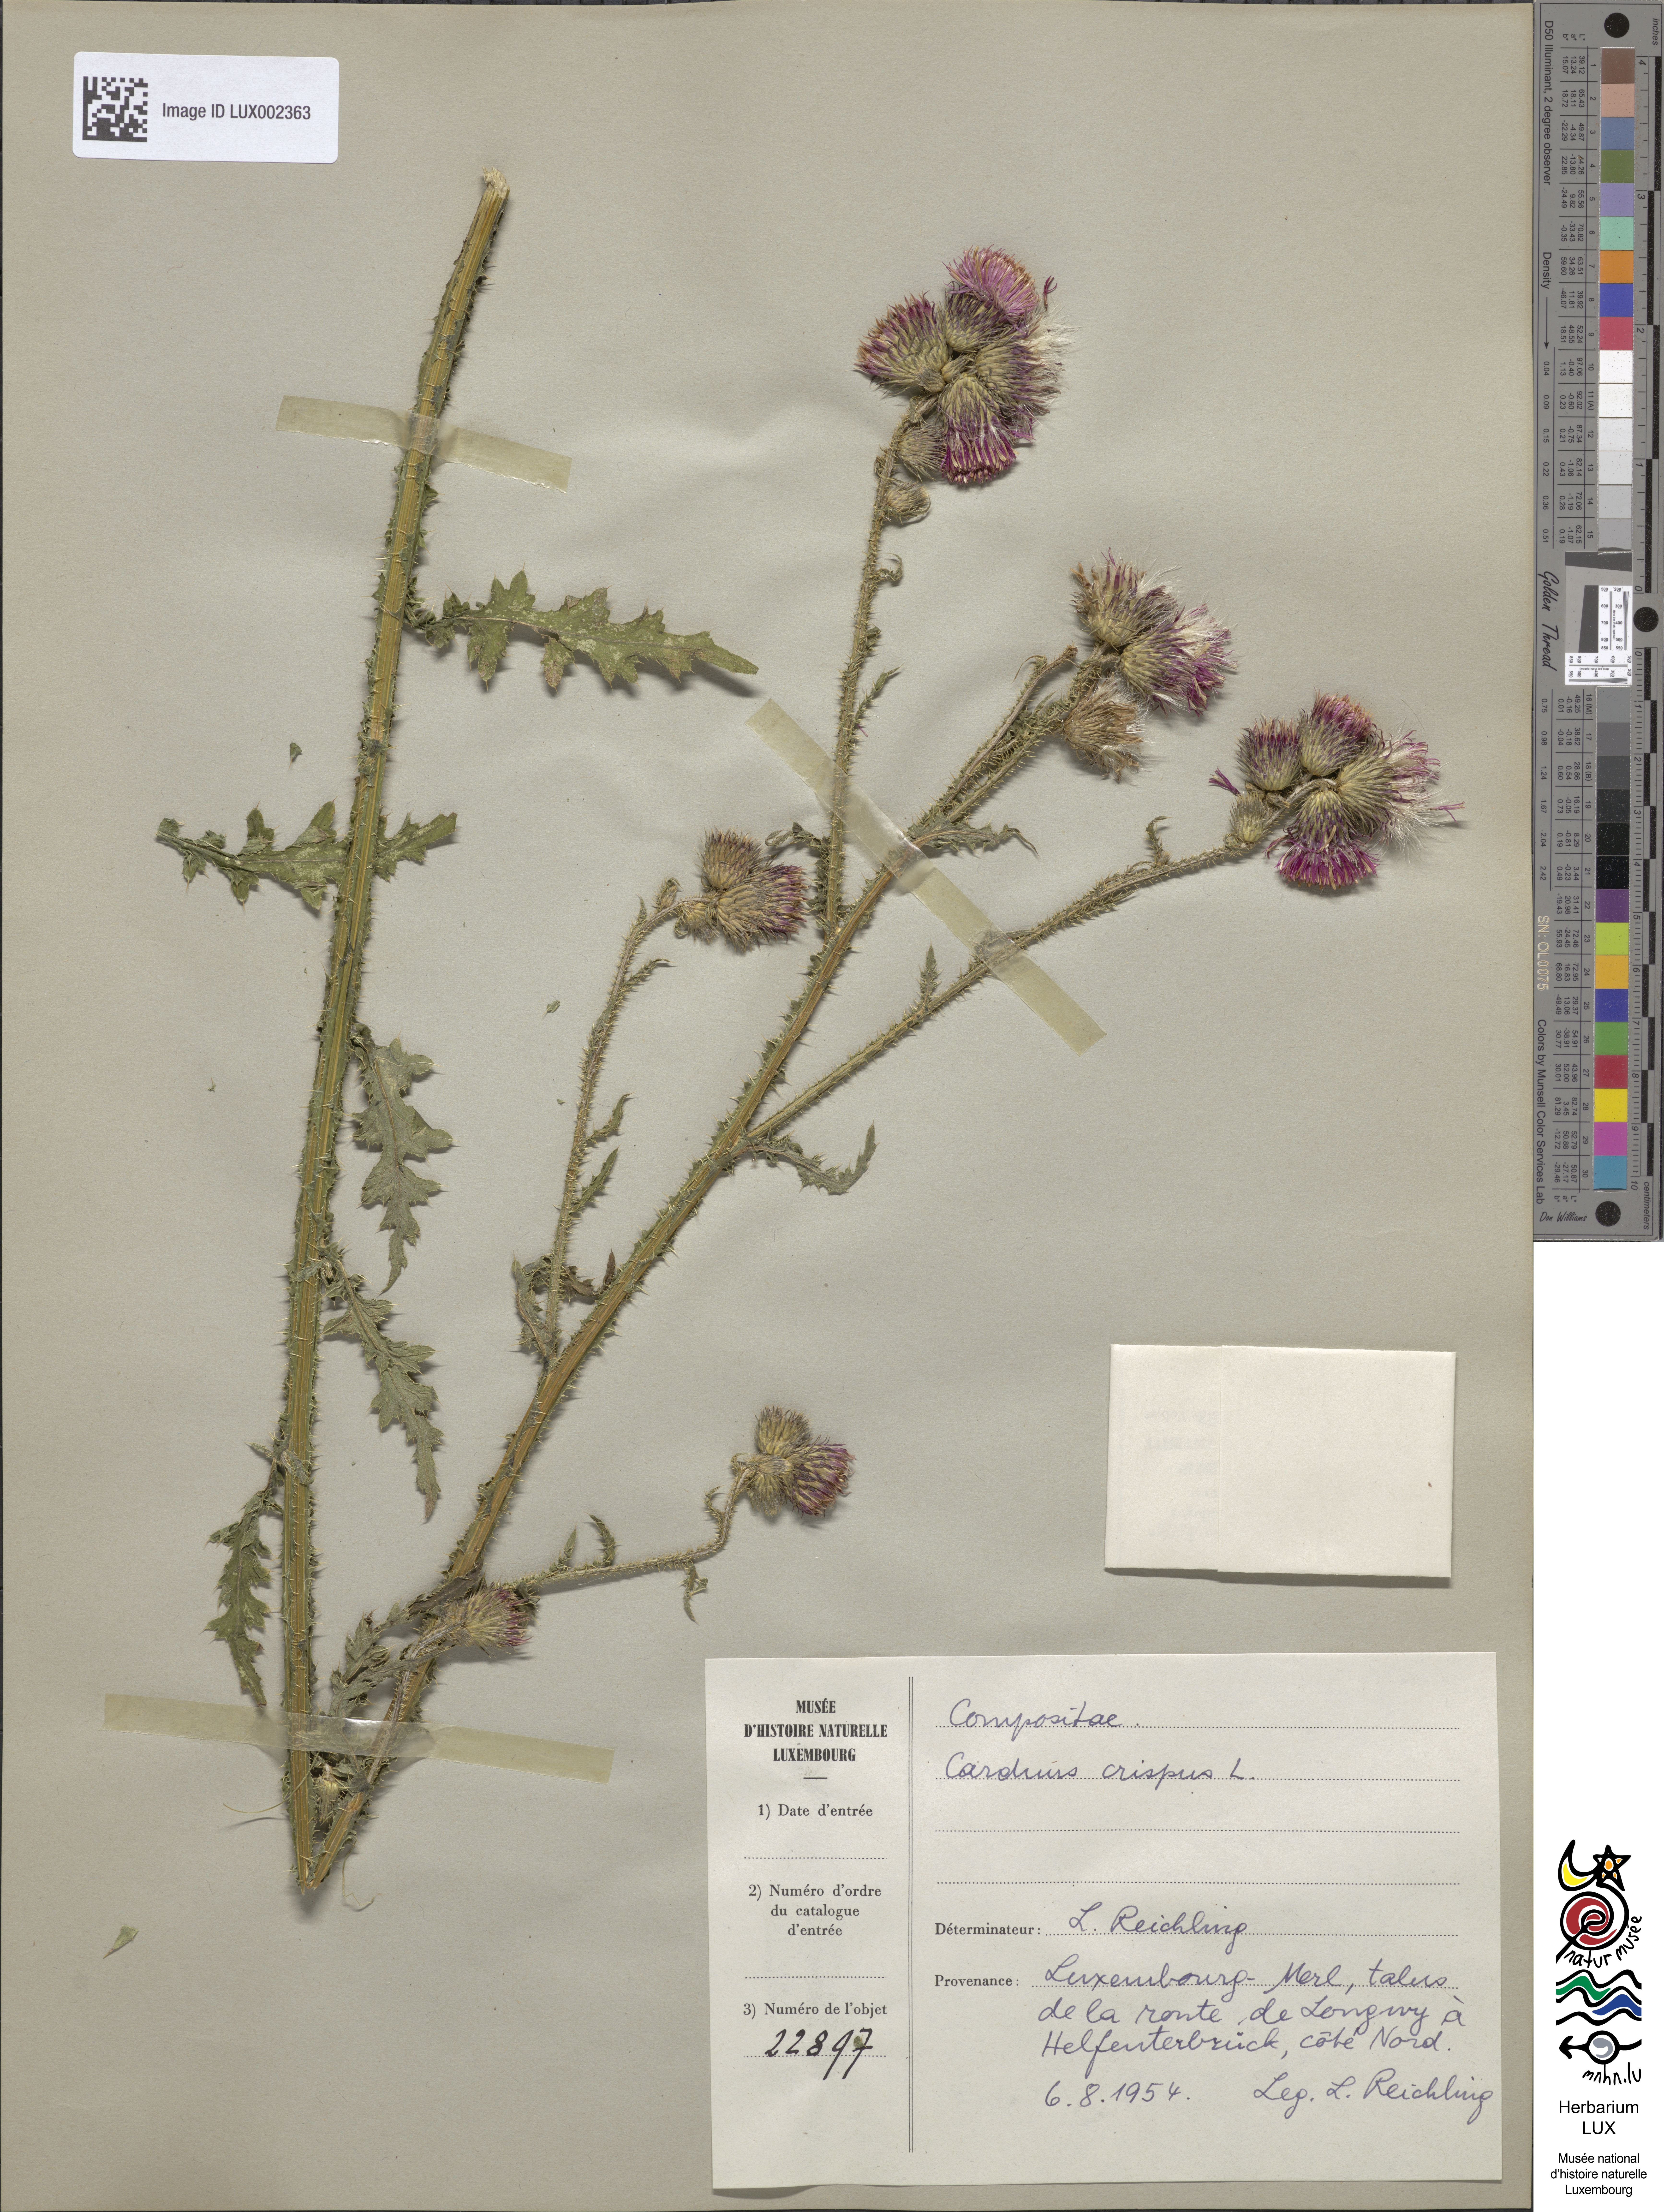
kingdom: Plantae
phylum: Tracheophyta
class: Magnoliopsida
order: Asterales
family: Asteraceae
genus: Carduus
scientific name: Carduus crispus
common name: Welted thistle
